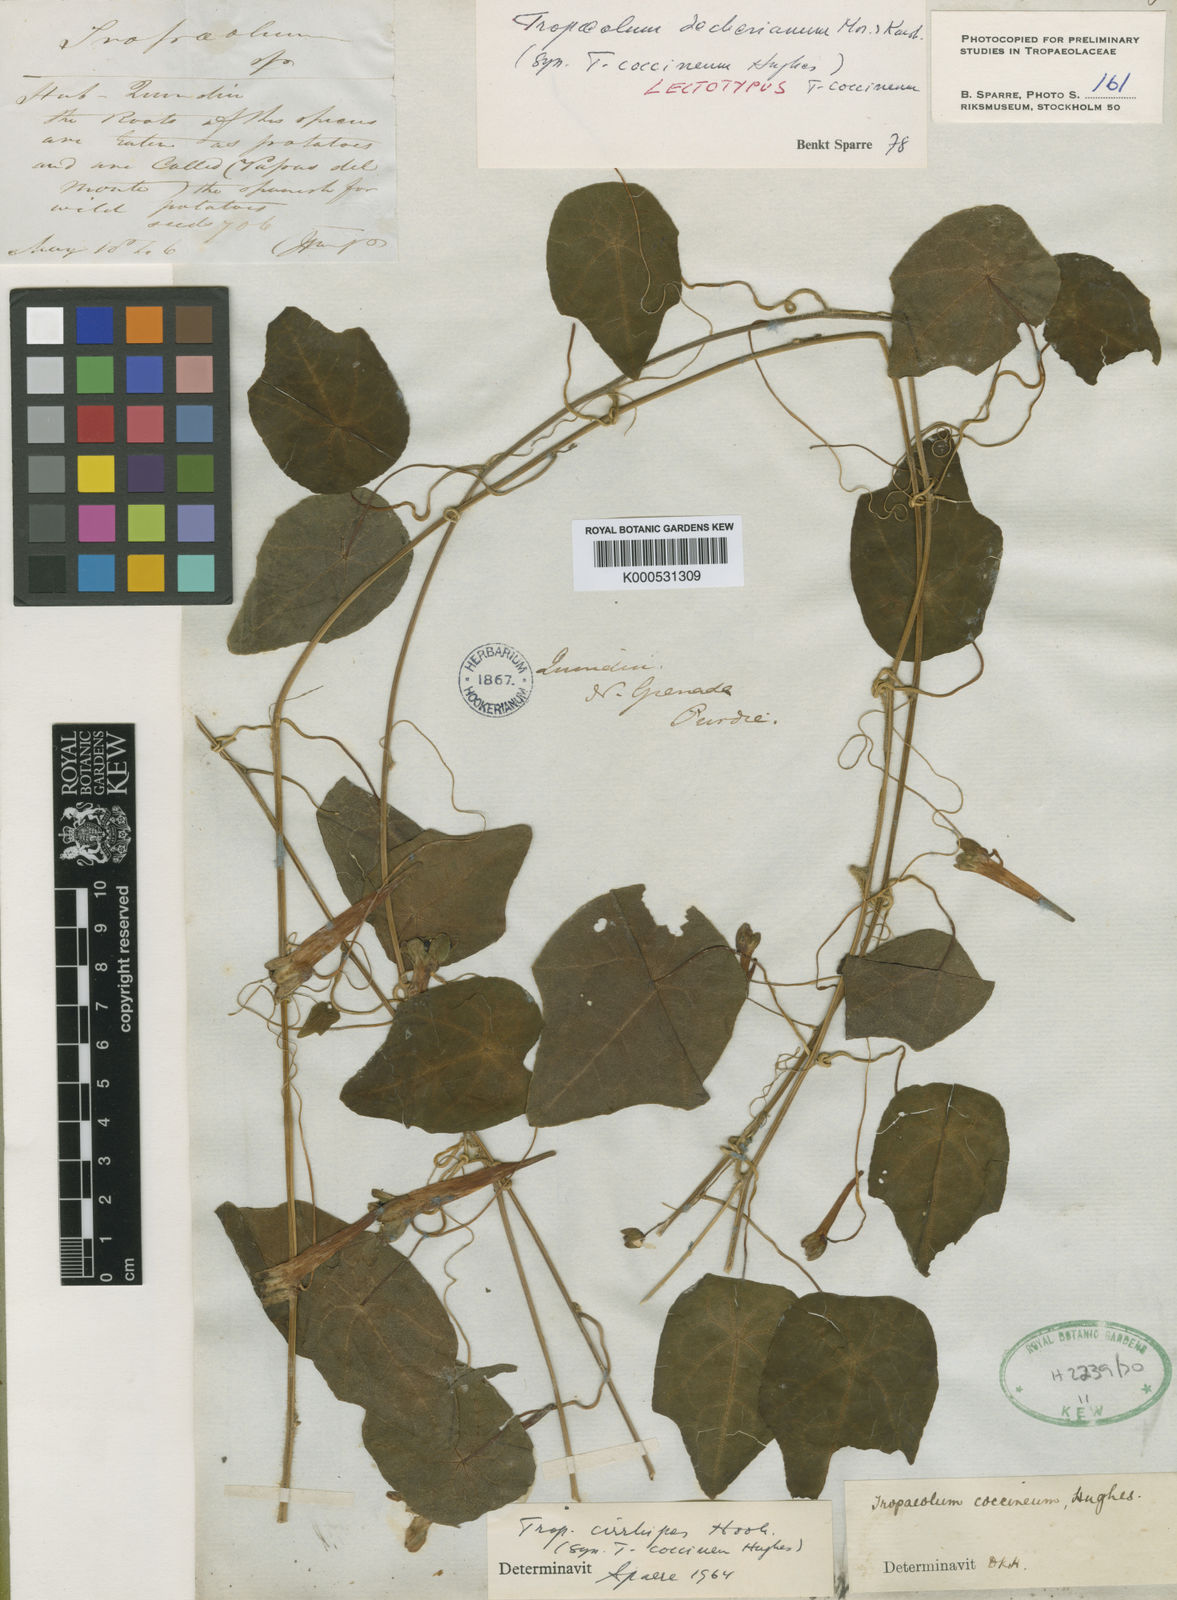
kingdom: Plantae
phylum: Tracheophyta
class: Magnoliopsida
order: Brassicales
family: Tropaeolaceae
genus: Tropaeolum
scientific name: Tropaeolum deckerianum
